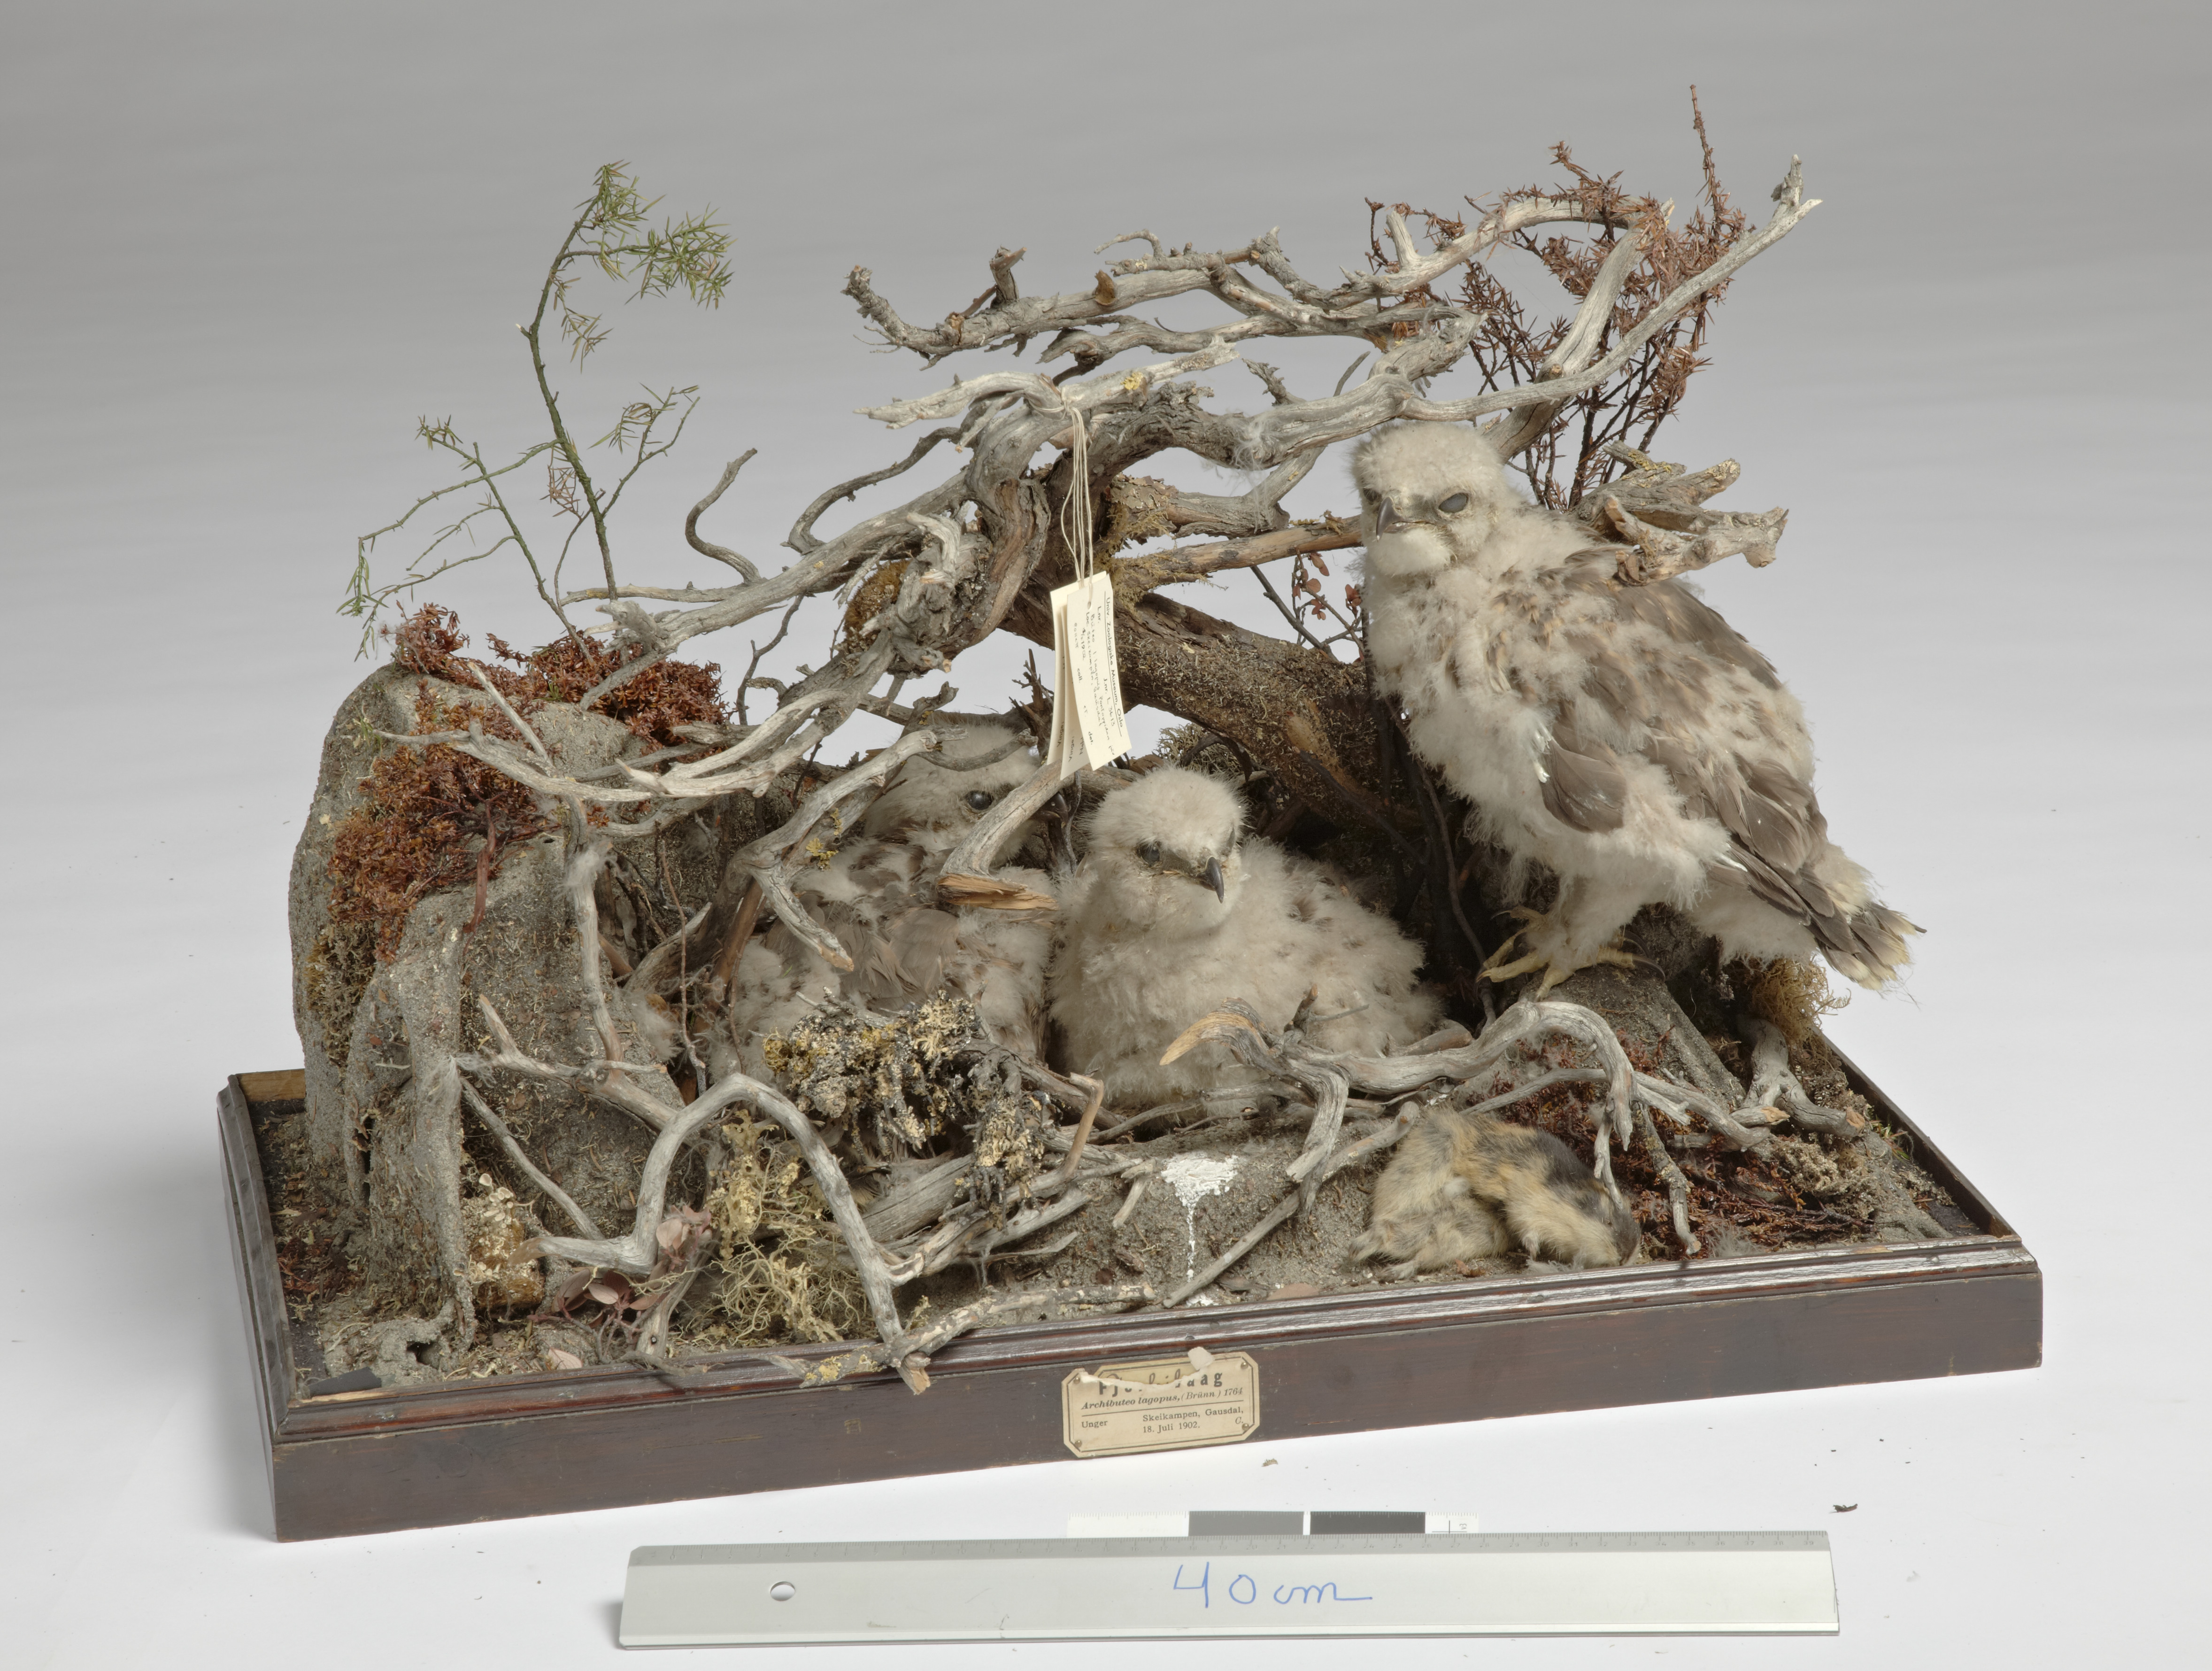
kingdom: Animalia
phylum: Chordata
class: Aves
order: Accipitriformes
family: Accipitridae
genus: Buteo
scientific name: Buteo lagopus
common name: Rough-legged buzzard
